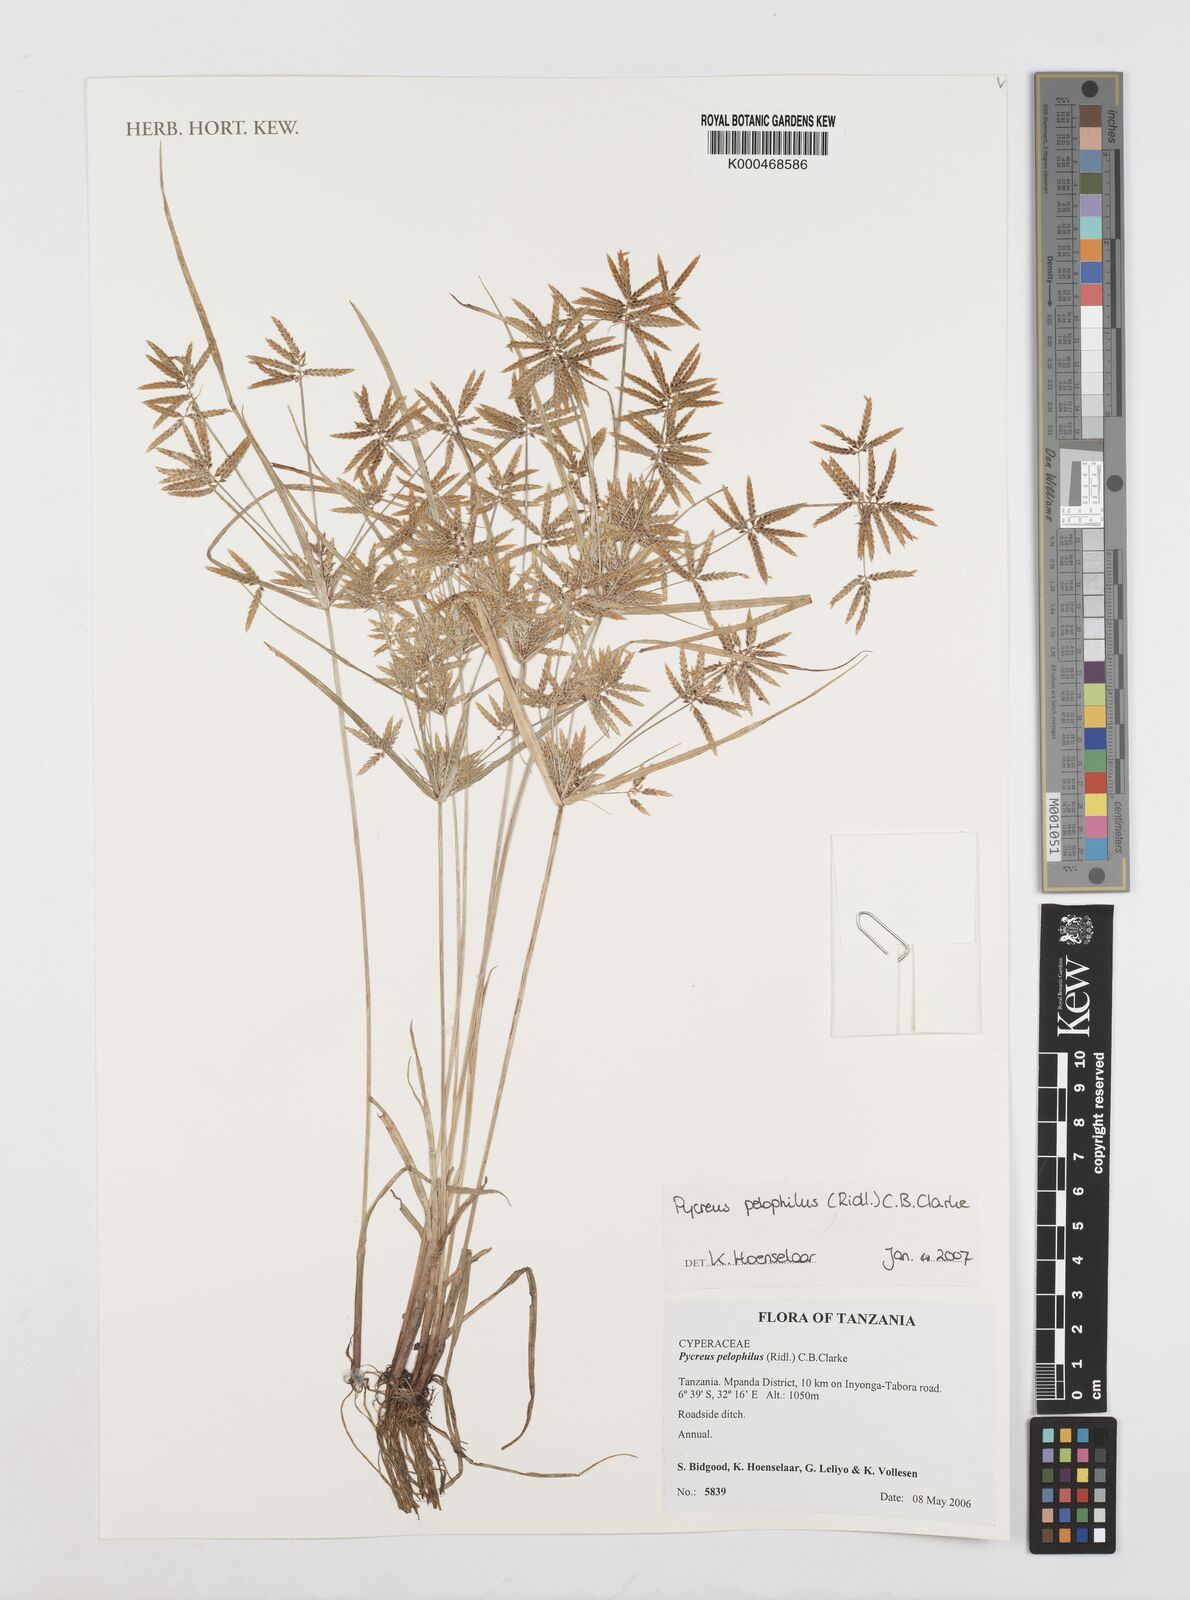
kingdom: Plantae
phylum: Tracheophyta
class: Liliopsida
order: Poales
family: Cyperaceae
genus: Cyperus
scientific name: Cyperus pelophilus
